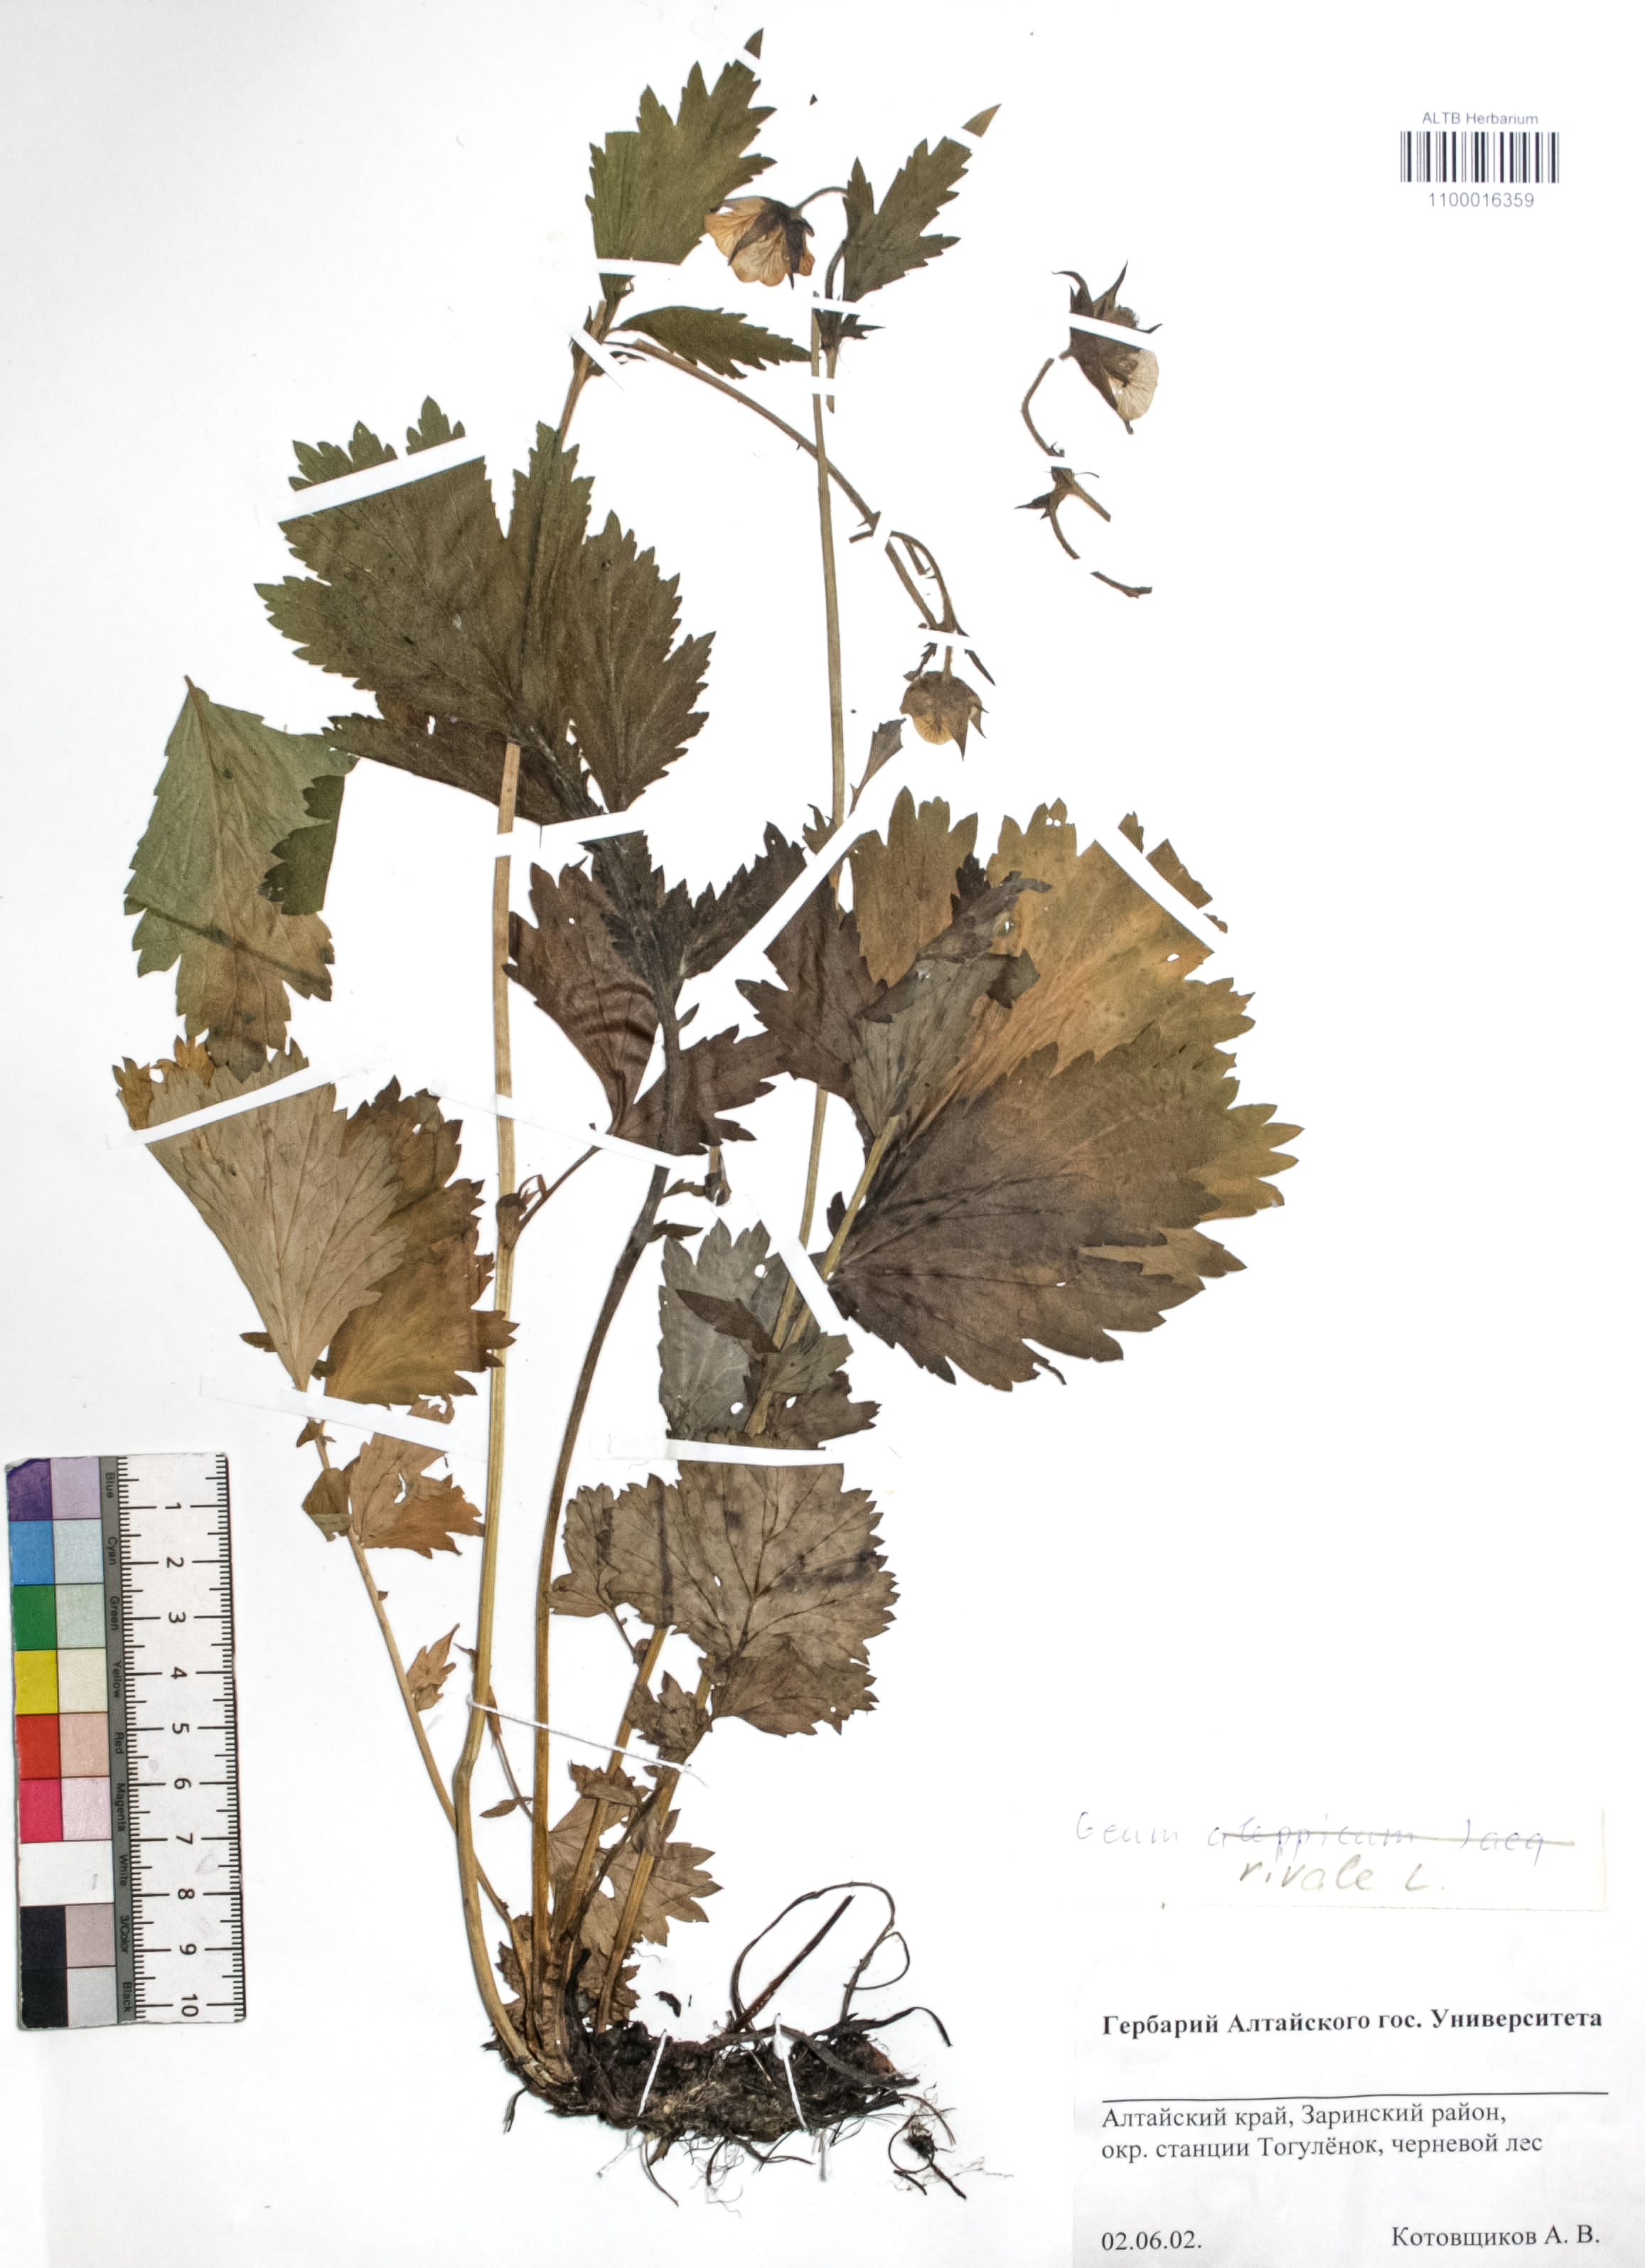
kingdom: Plantae
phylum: Tracheophyta
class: Magnoliopsida
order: Rosales
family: Rosaceae
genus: Geum
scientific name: Geum rivale
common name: Water avens
